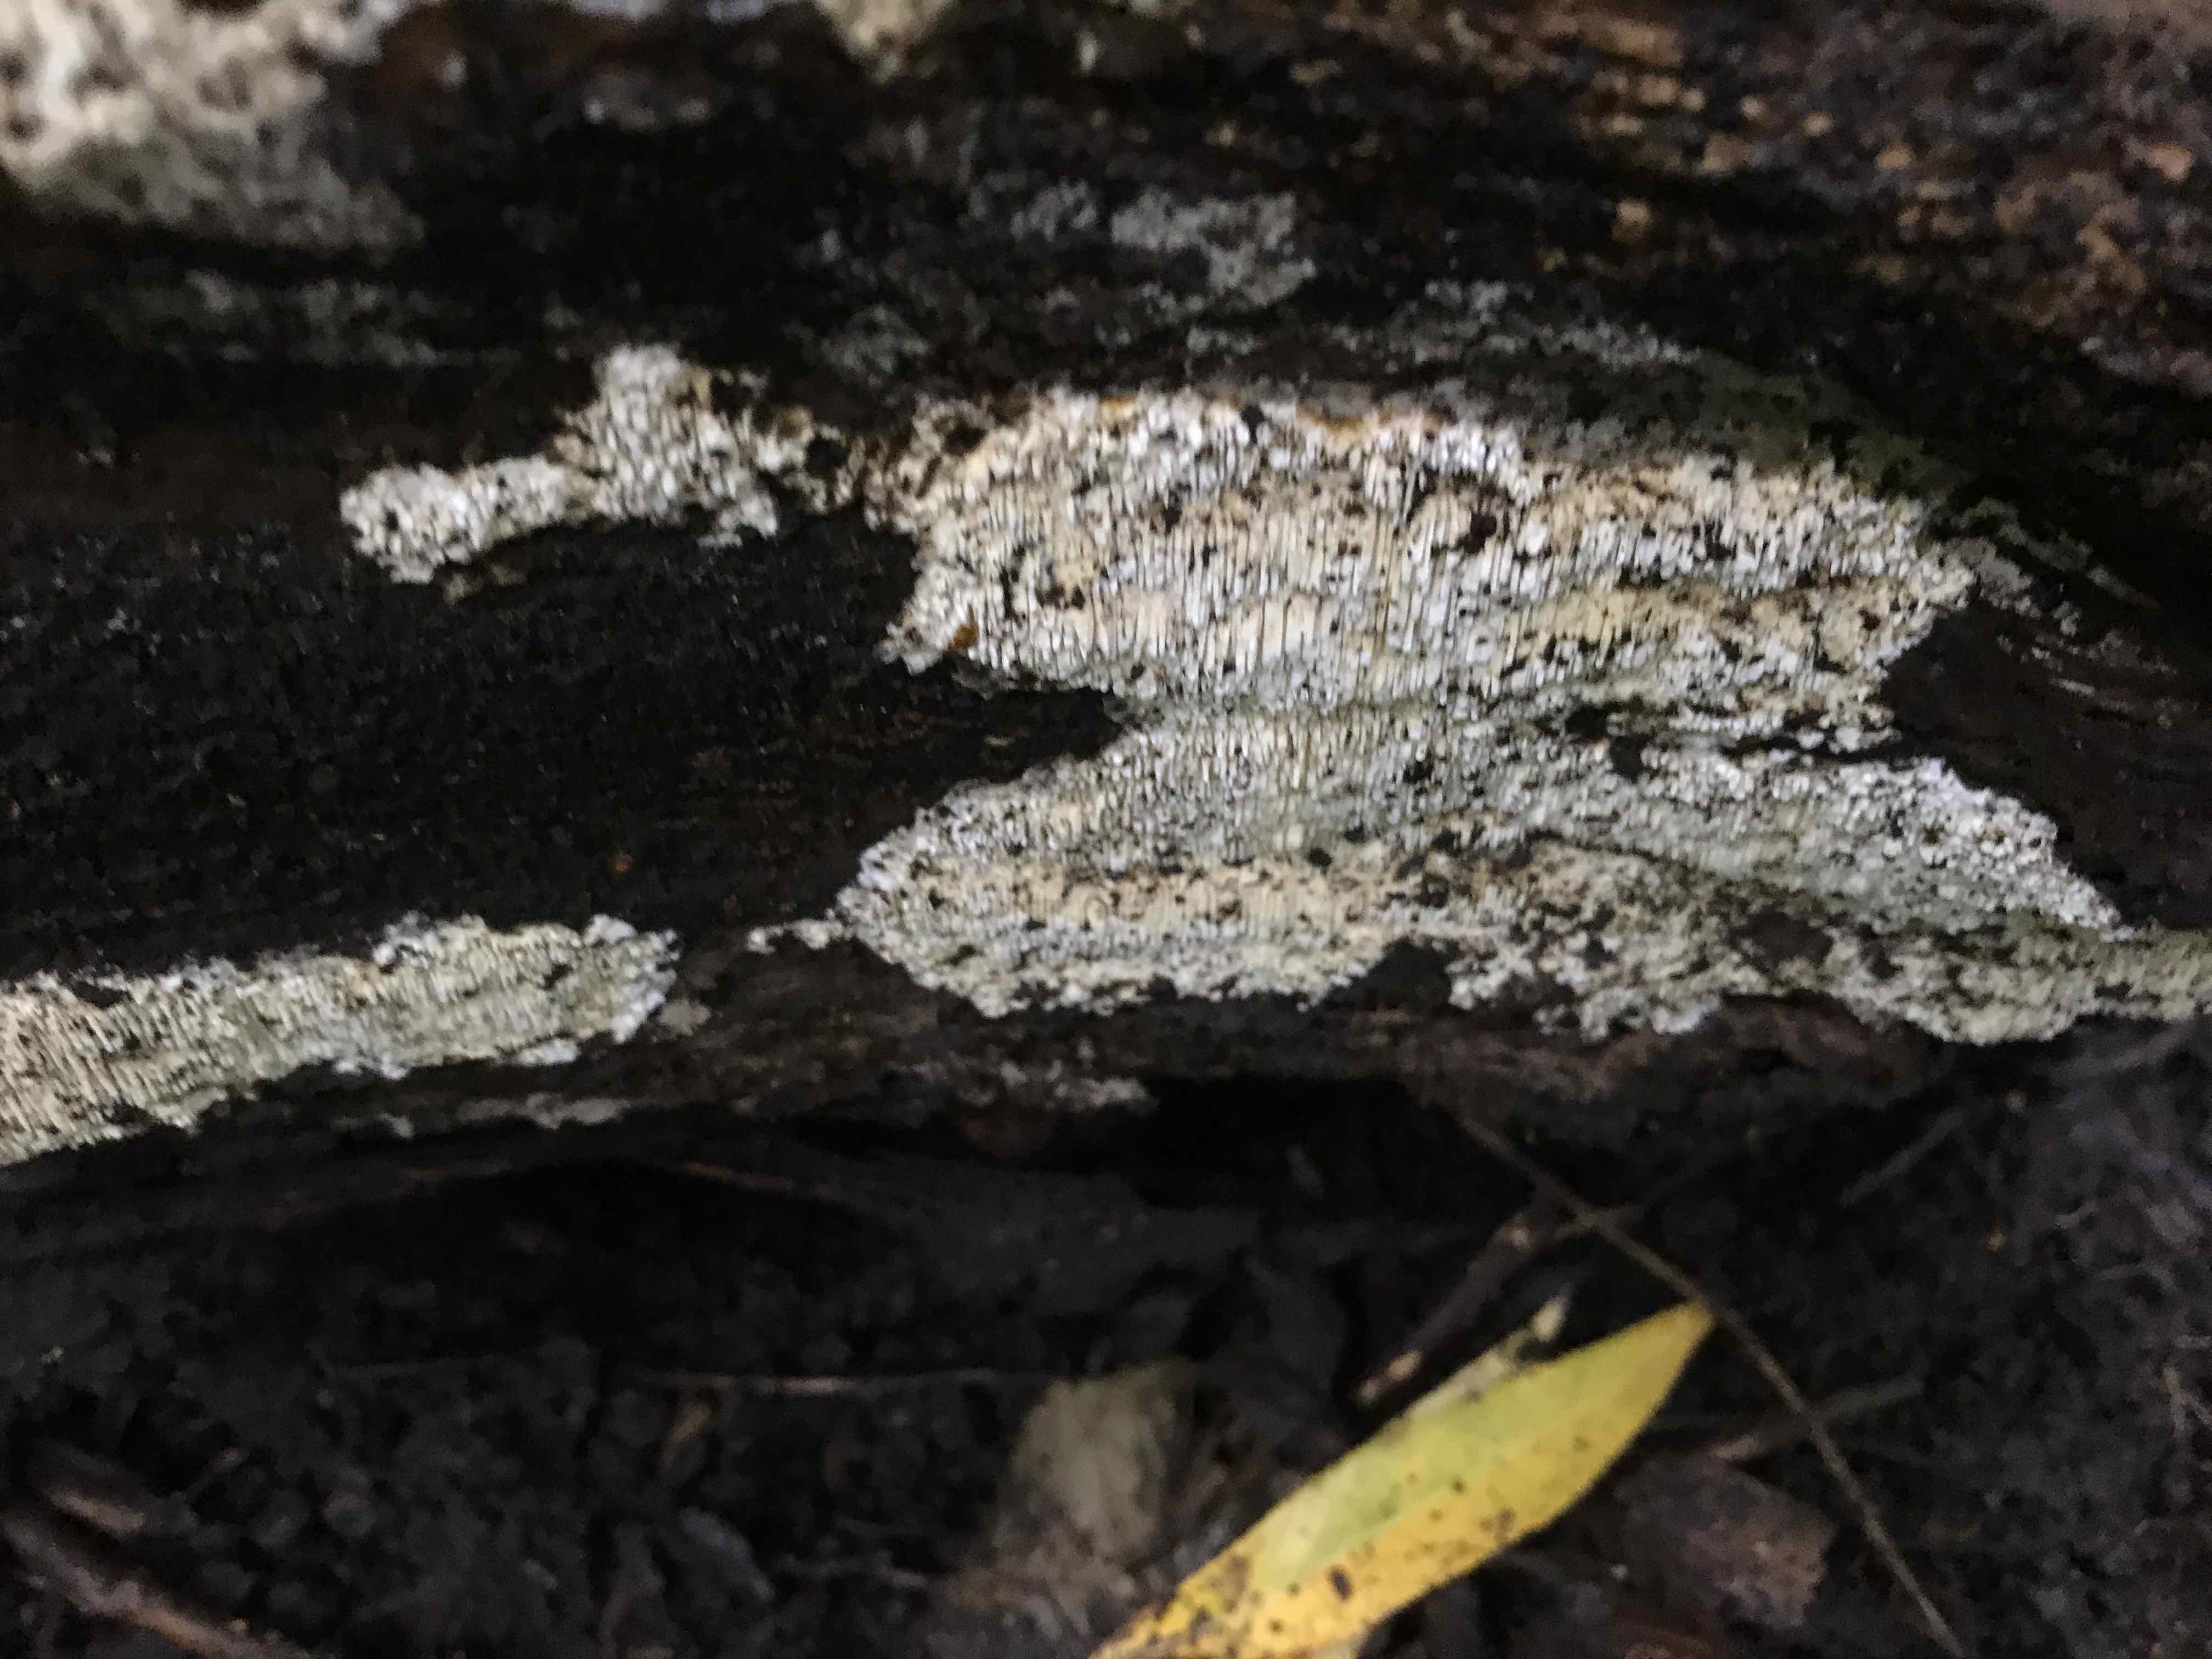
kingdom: Fungi
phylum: Basidiomycota
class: Agaricomycetes
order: Hymenochaetales
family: Schizoporaceae
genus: Xylodon
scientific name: Xylodon
